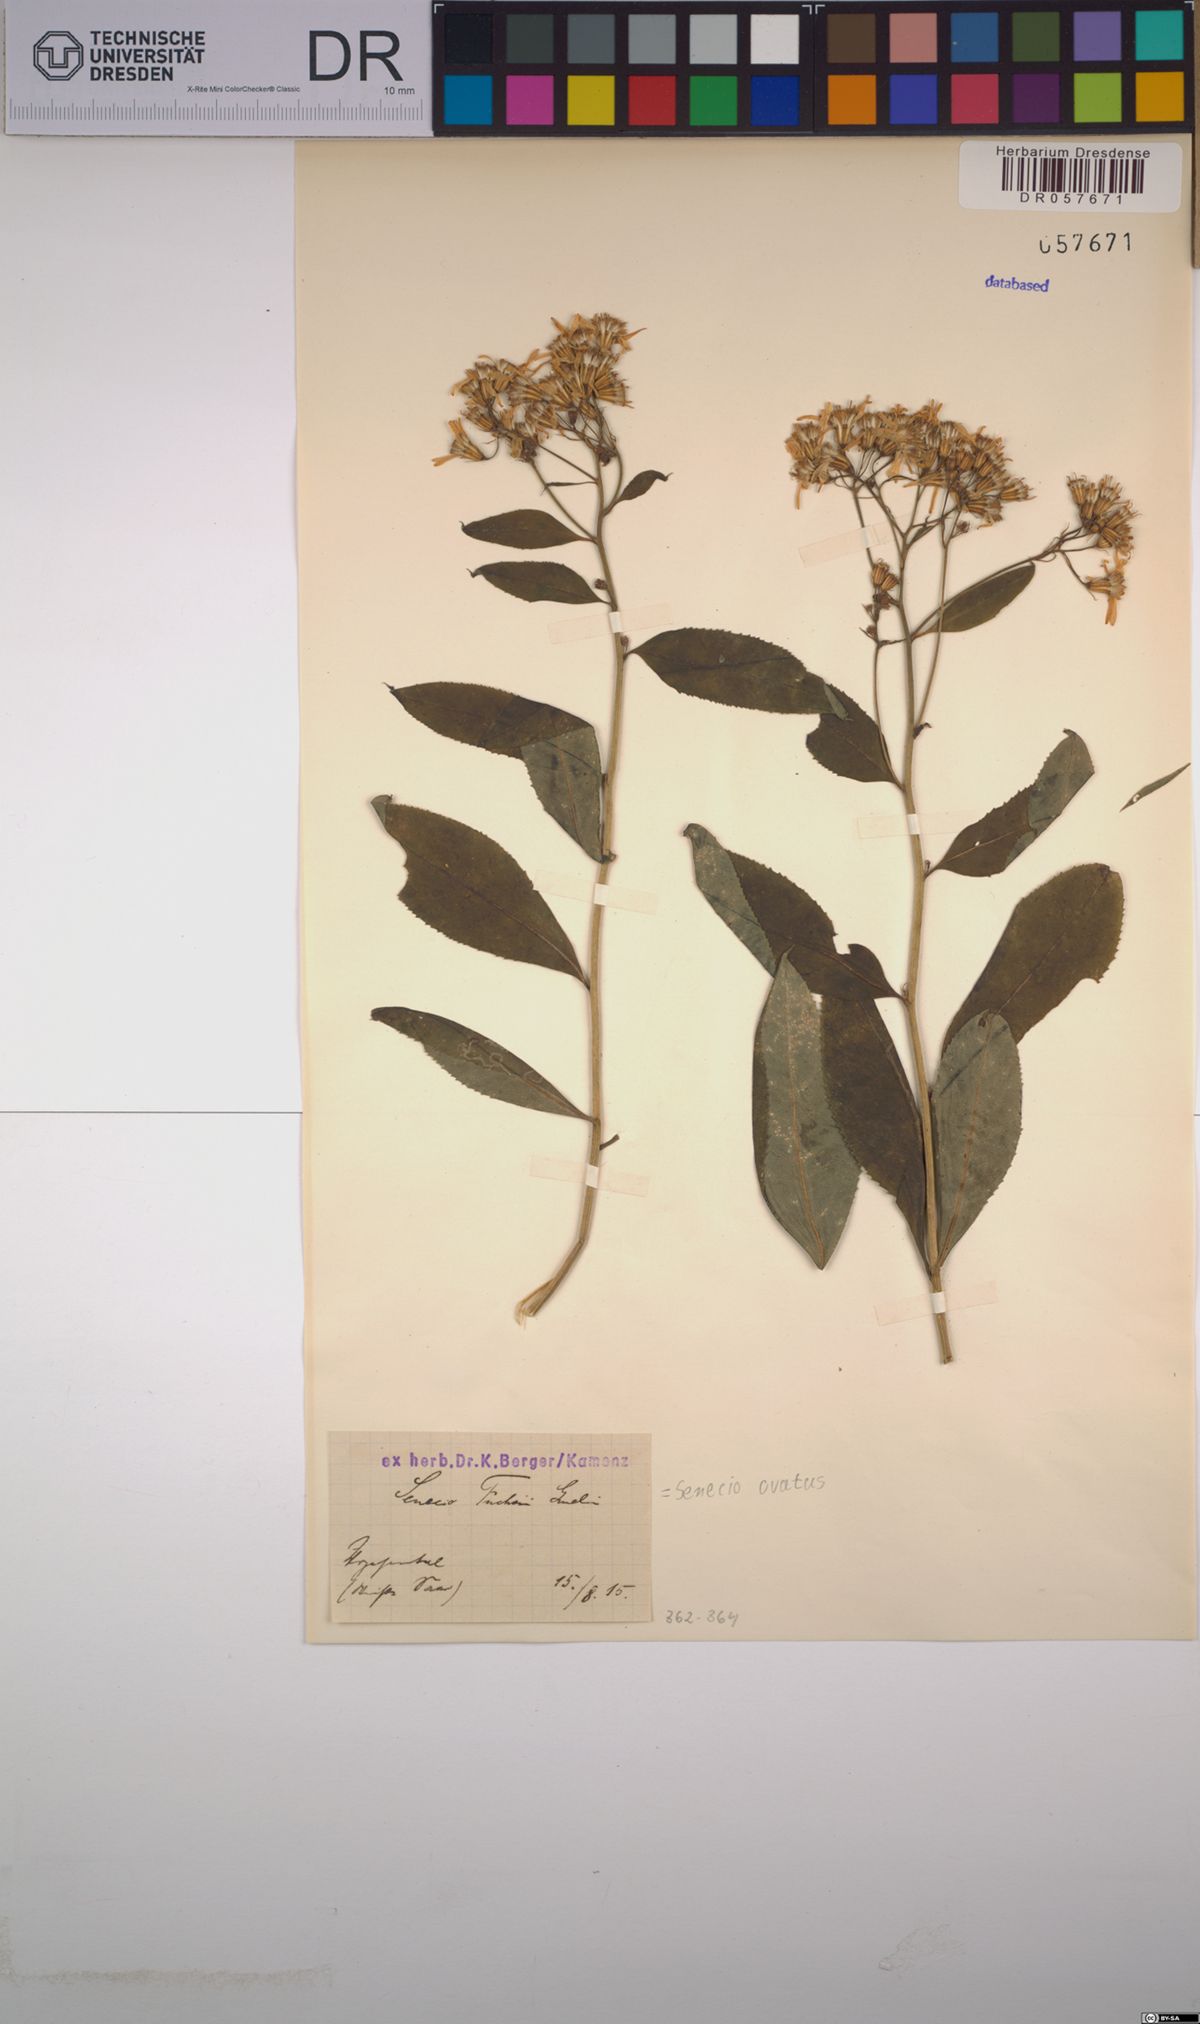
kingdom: Plantae
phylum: Tracheophyta
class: Magnoliopsida
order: Asterales
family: Asteraceae
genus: Senecio
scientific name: Senecio ovatus
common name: Wood ragwort
